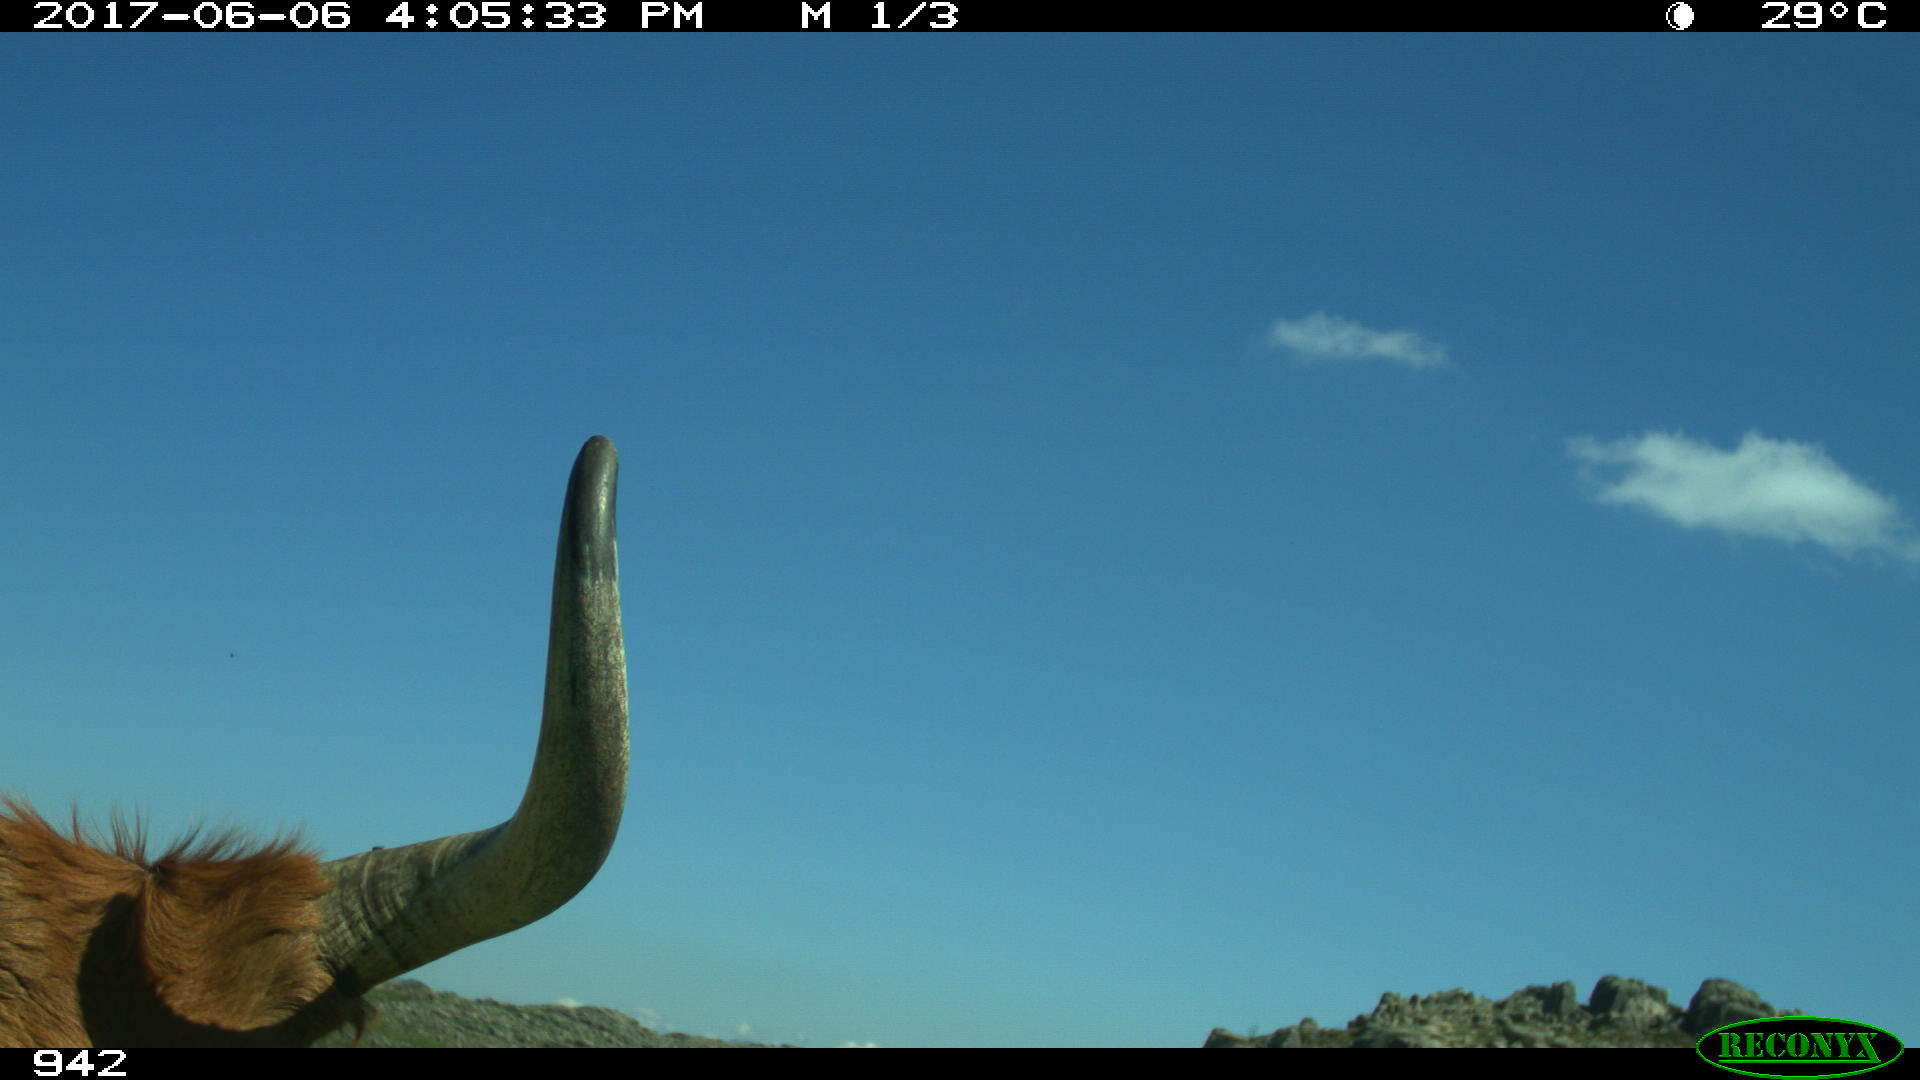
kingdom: Animalia
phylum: Chordata
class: Mammalia
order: Artiodactyla
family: Bovidae
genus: Bos
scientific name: Bos taurus
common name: Domesticated cattle
